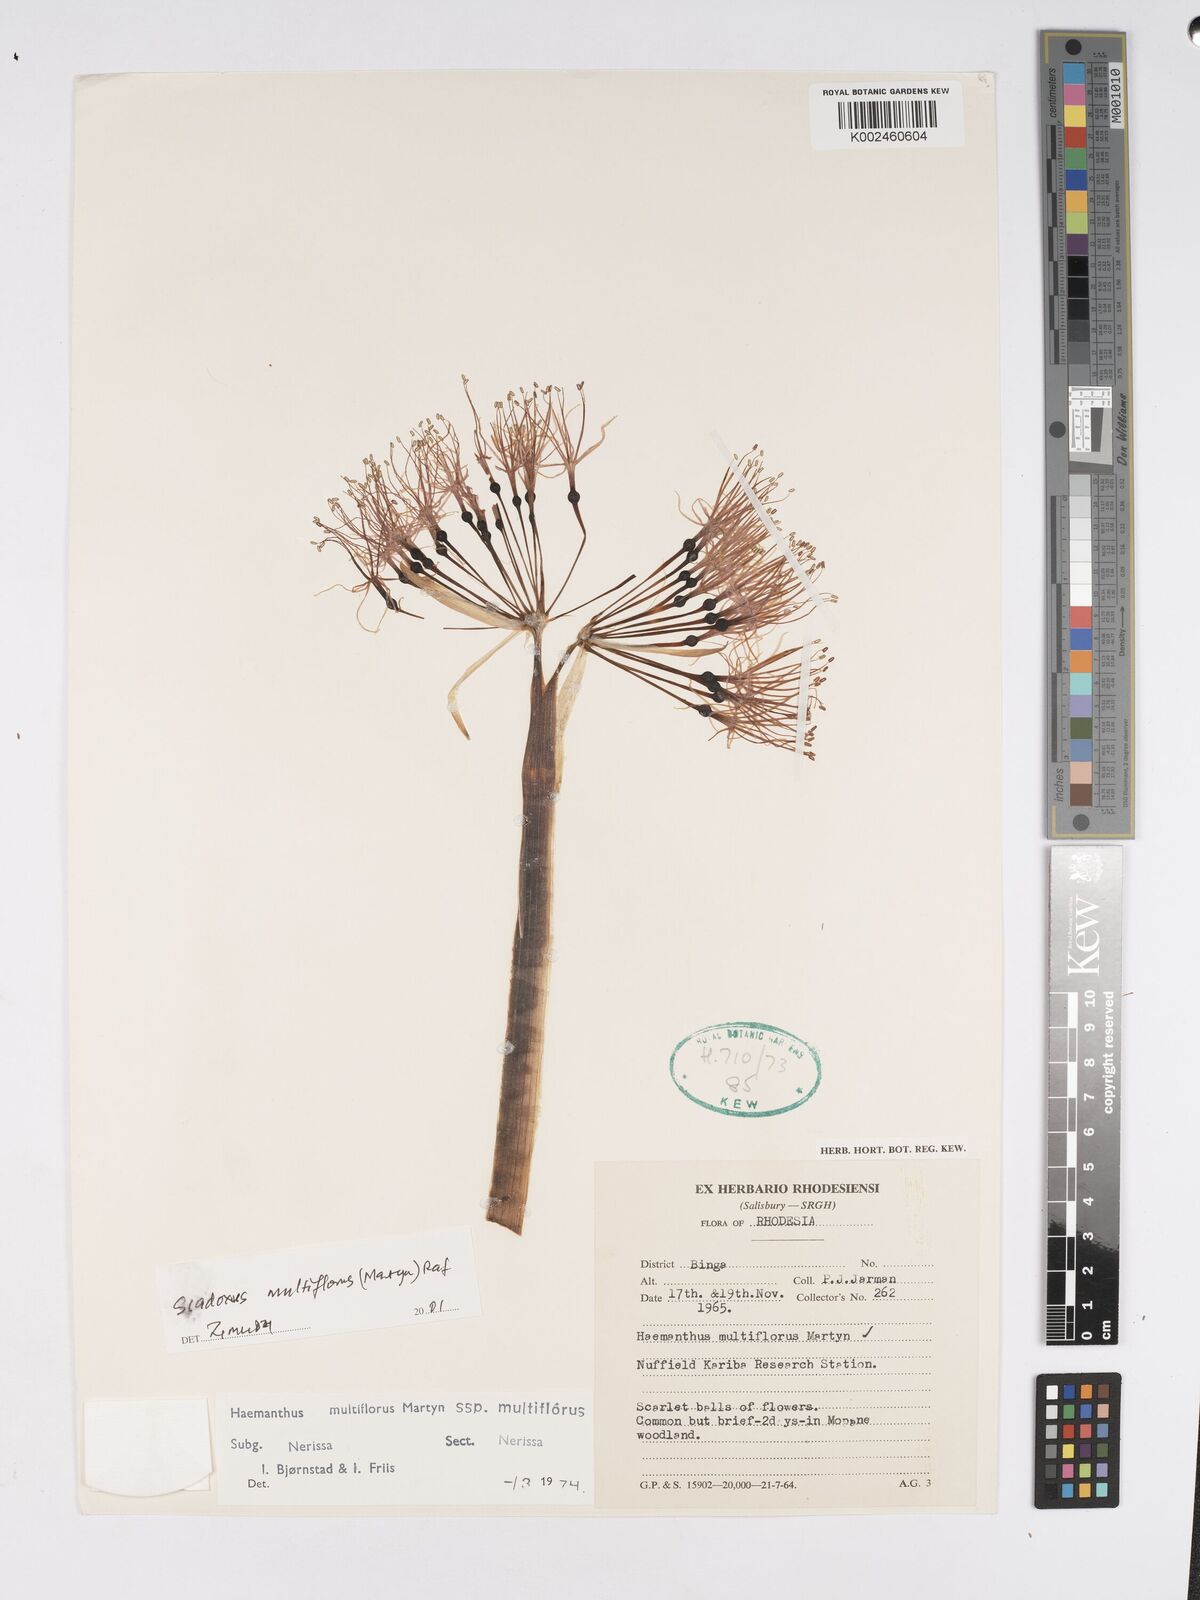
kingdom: Plantae
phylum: Tracheophyta
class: Liliopsida
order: Asparagales
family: Amaryllidaceae
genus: Scadoxus
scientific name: Scadoxus multiflorus
